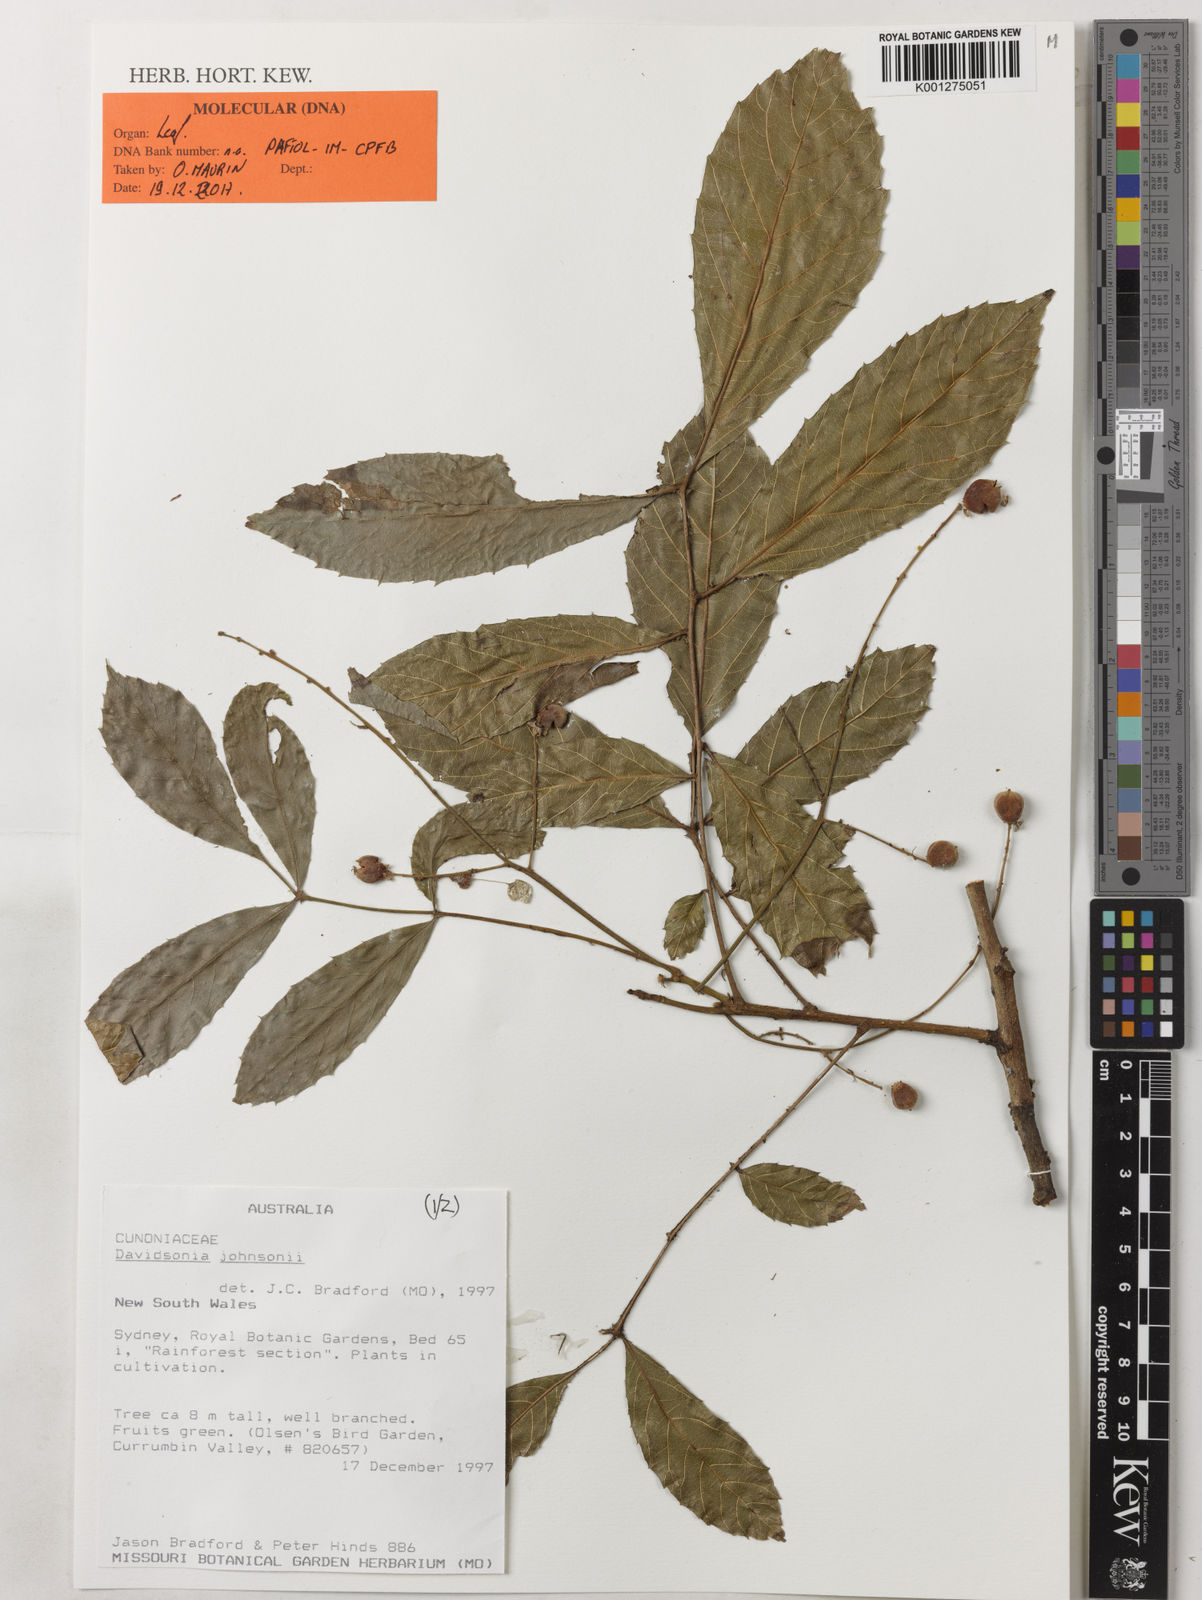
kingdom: Plantae
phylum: Tracheophyta
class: Magnoliopsida
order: Oxalidales
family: Cunoniaceae
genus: Davidsonia
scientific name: Davidsonia johnsonii
